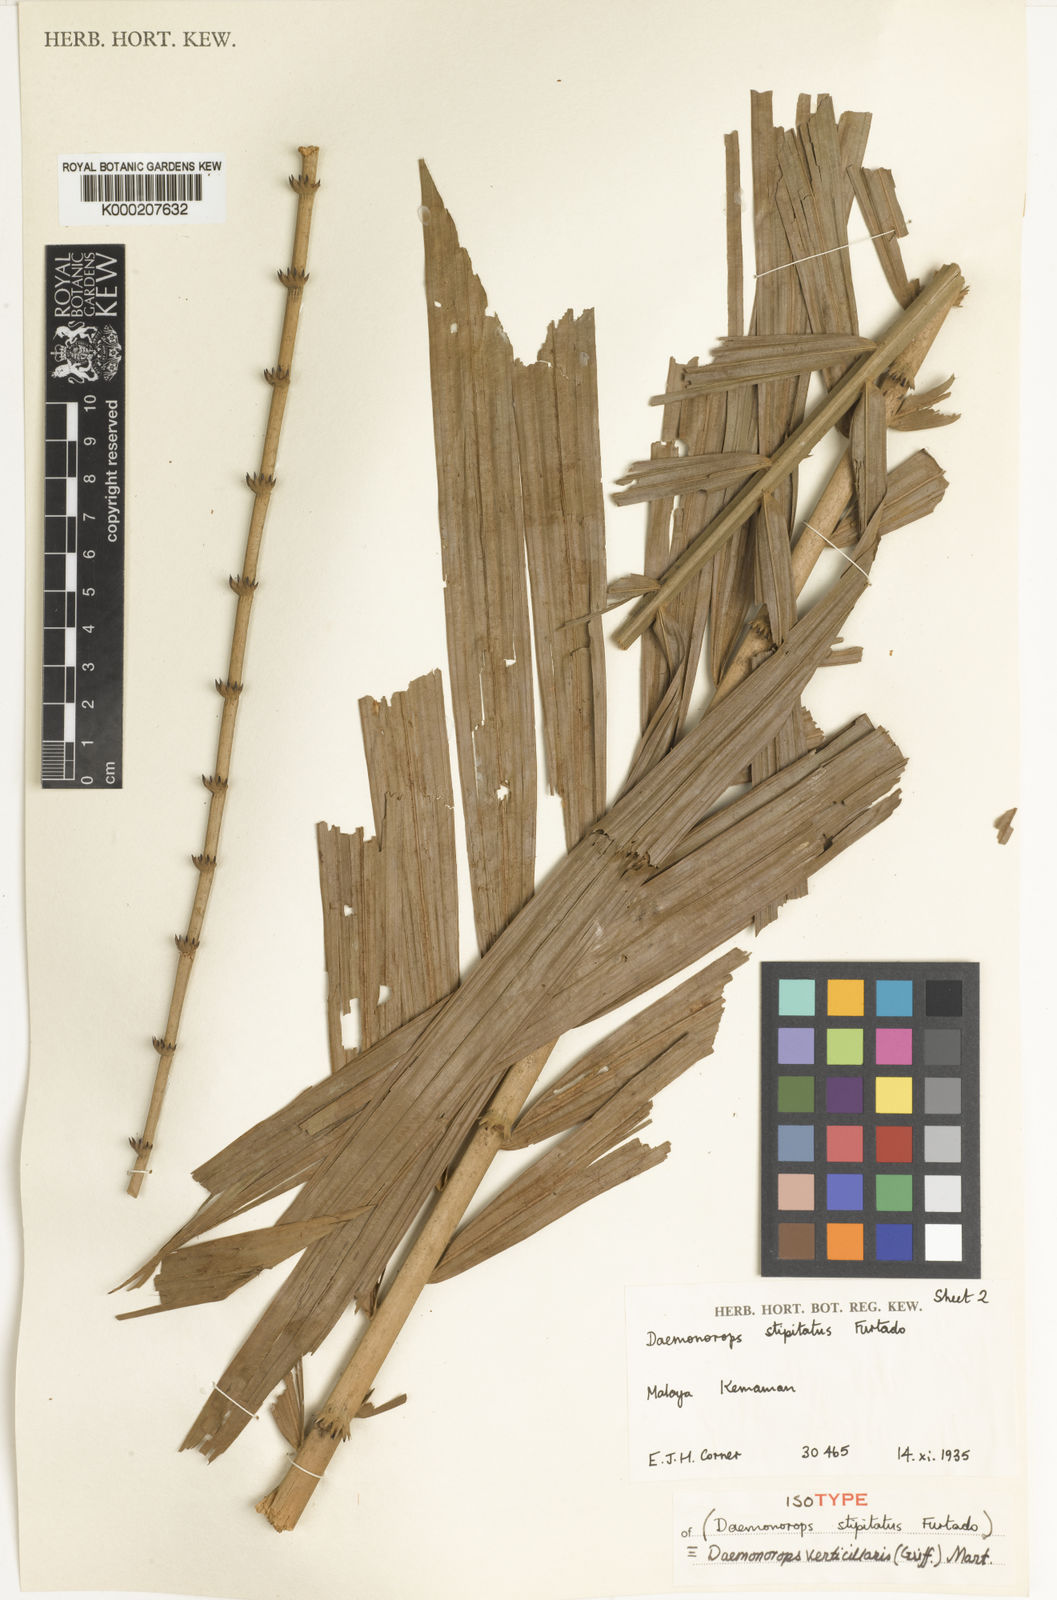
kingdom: Plantae
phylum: Tracheophyta
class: Liliopsida
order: Arecales
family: Arecaceae
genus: Calamus
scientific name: Calamus verticillaris
